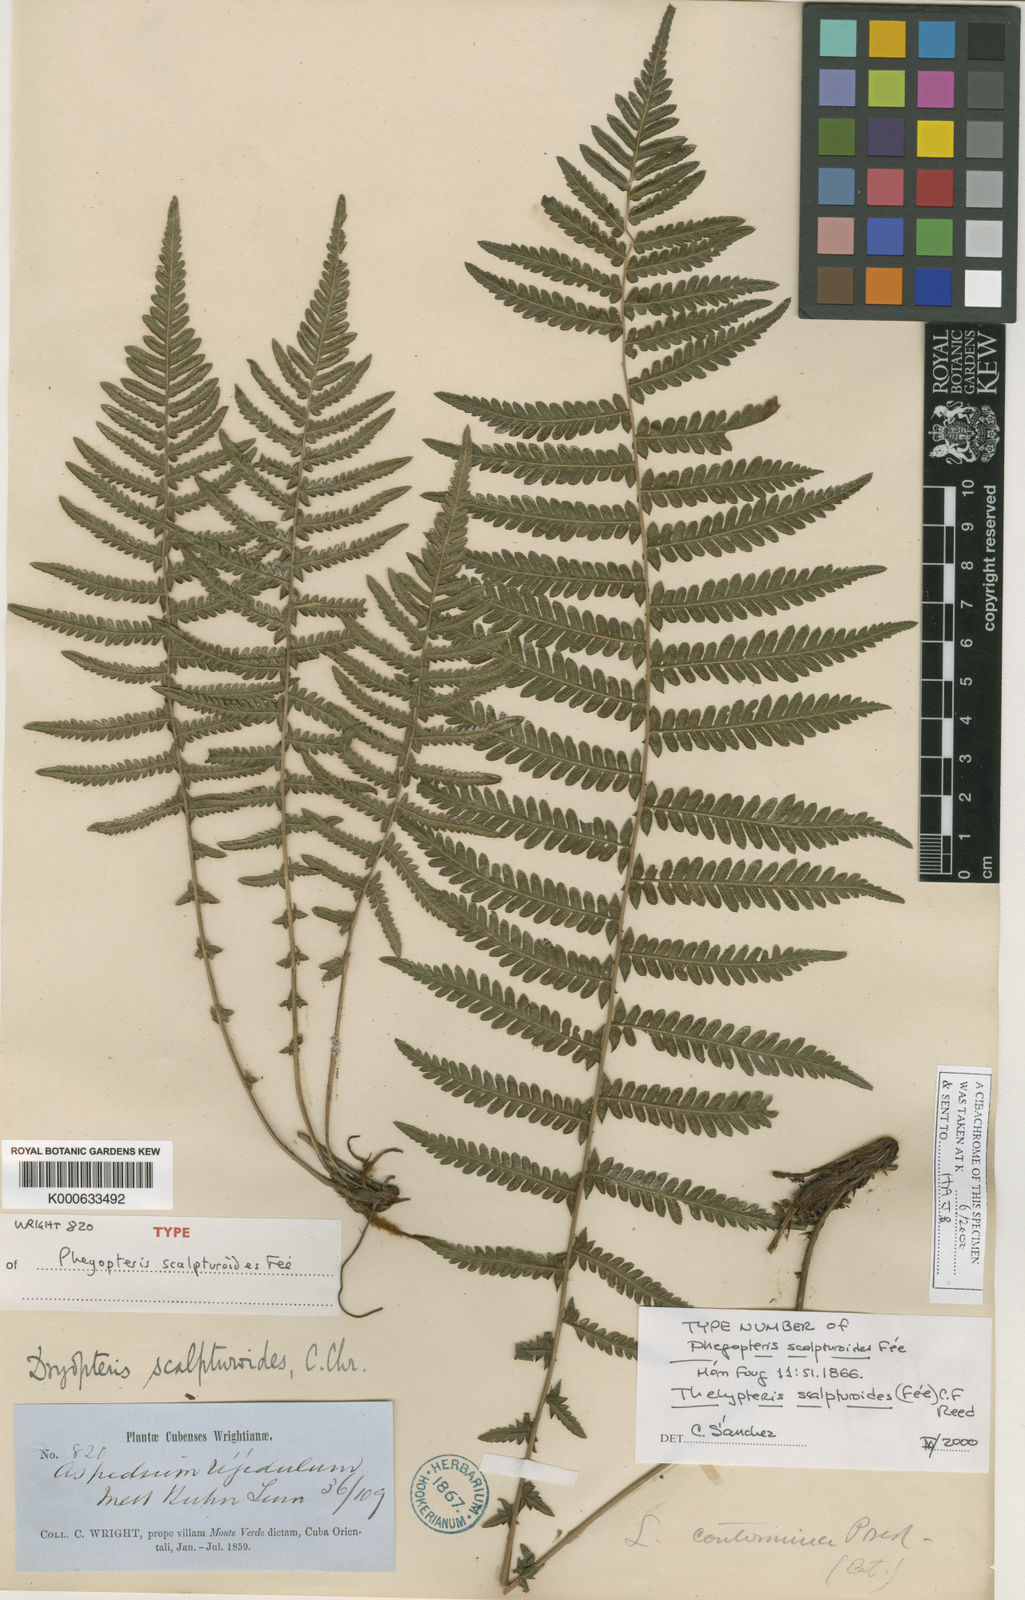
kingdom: Plantae
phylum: Tracheophyta
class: Polypodiopsida
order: Polypodiales
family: Thelypteridaceae
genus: Amauropelta
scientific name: Amauropelta
